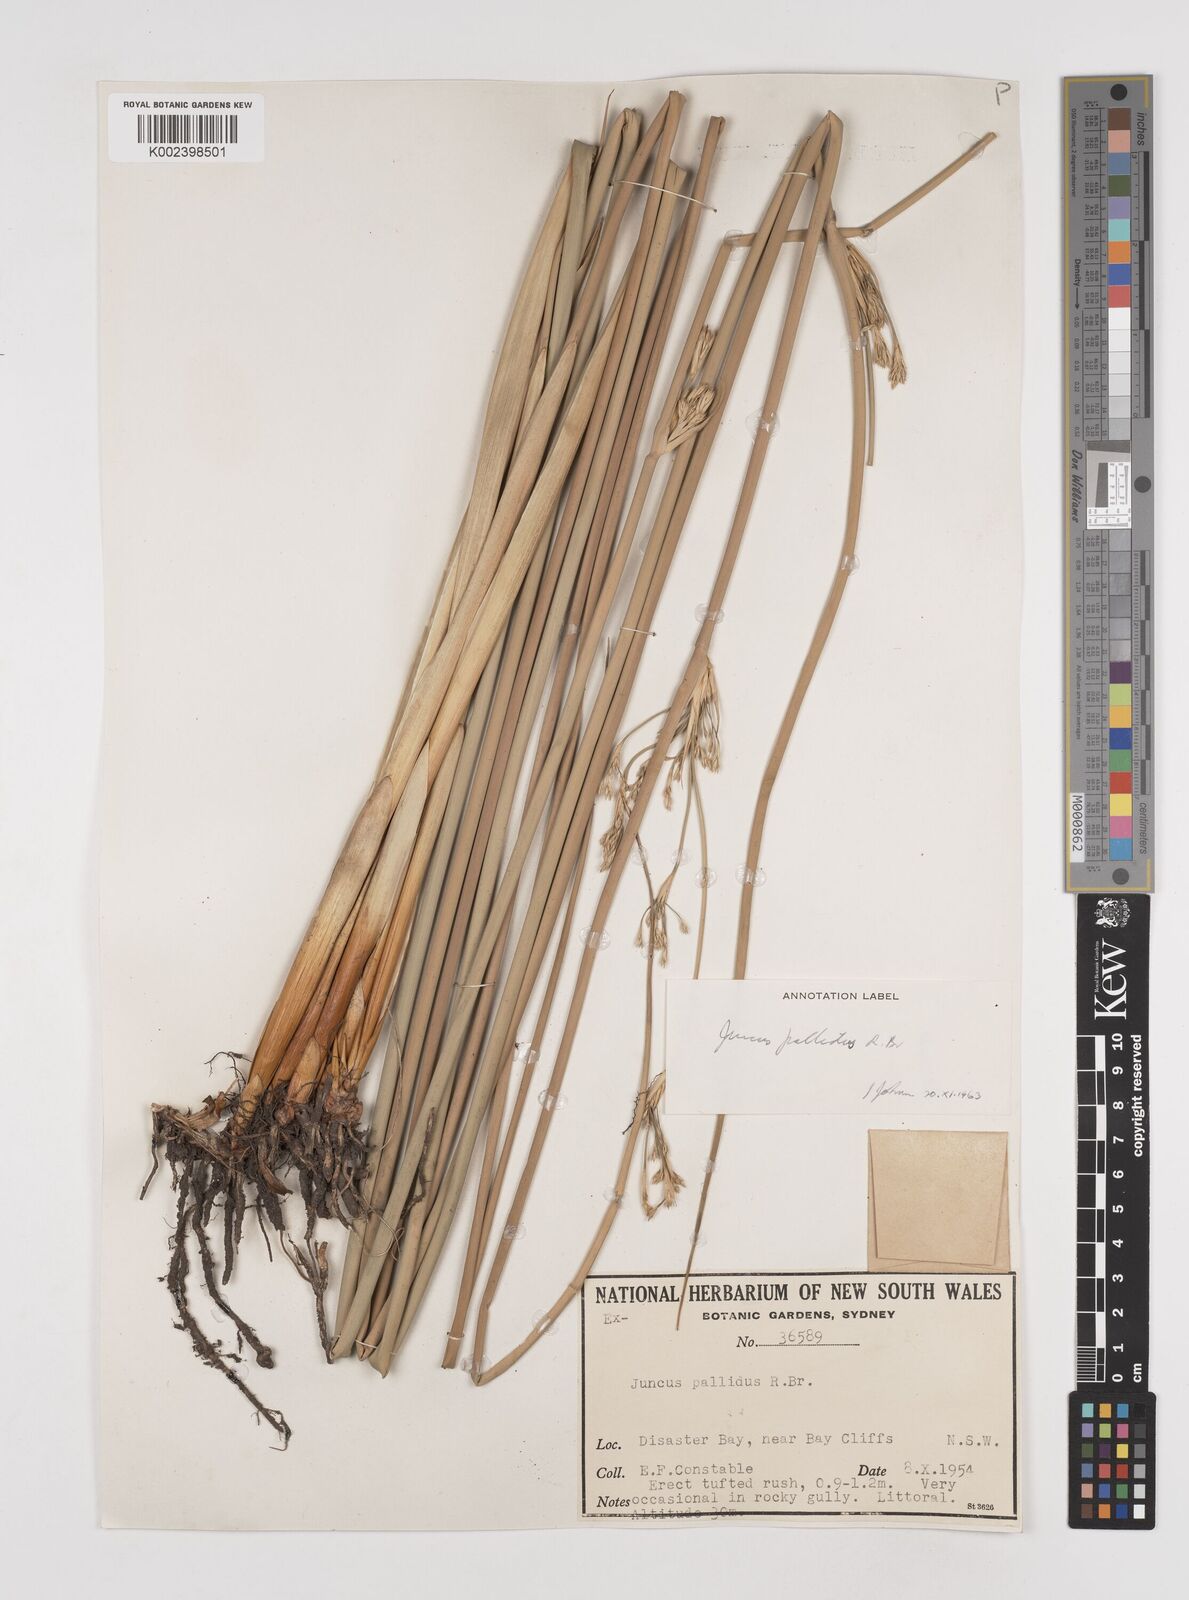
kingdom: Plantae
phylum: Tracheophyta
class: Liliopsida
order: Poales
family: Juncaceae
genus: Juncus
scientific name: Juncus pallidus
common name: Great soft-rush
